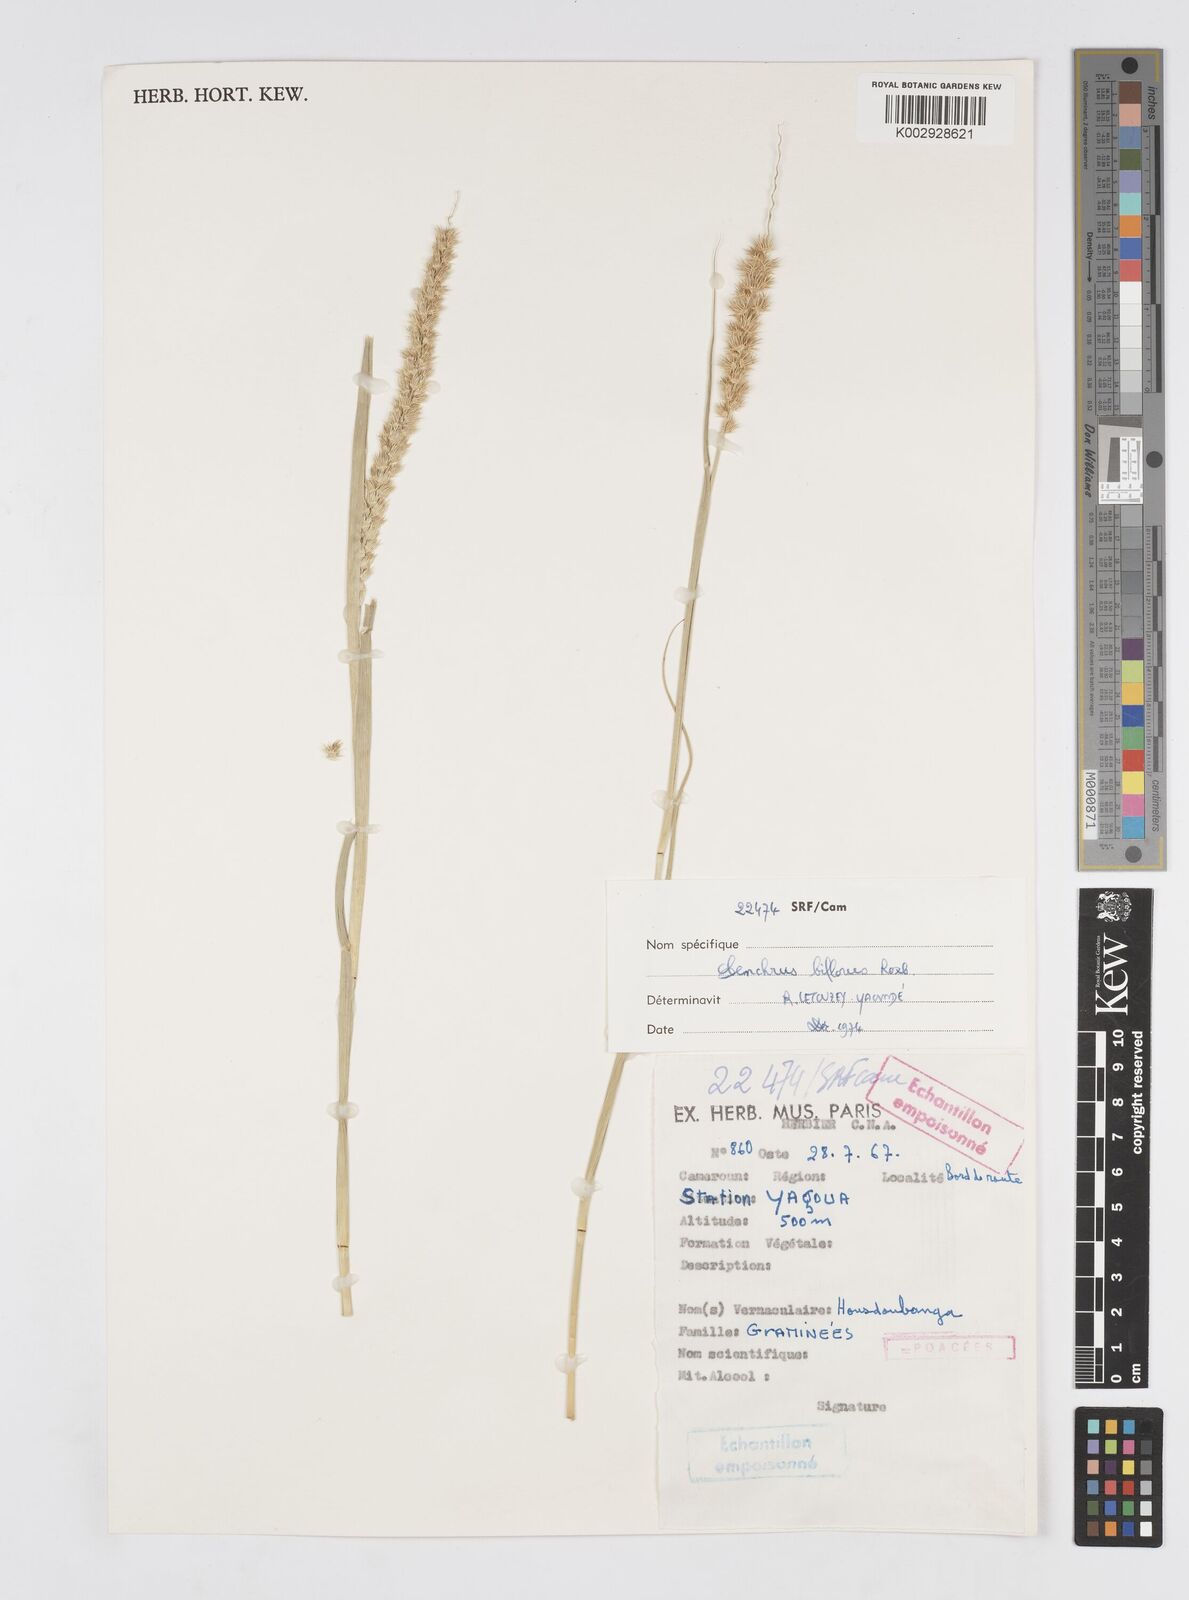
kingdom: Plantae
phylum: Tracheophyta
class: Liliopsida
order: Poales
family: Poaceae
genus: Cenchrus
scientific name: Cenchrus biflorus
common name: Indian sandbur
